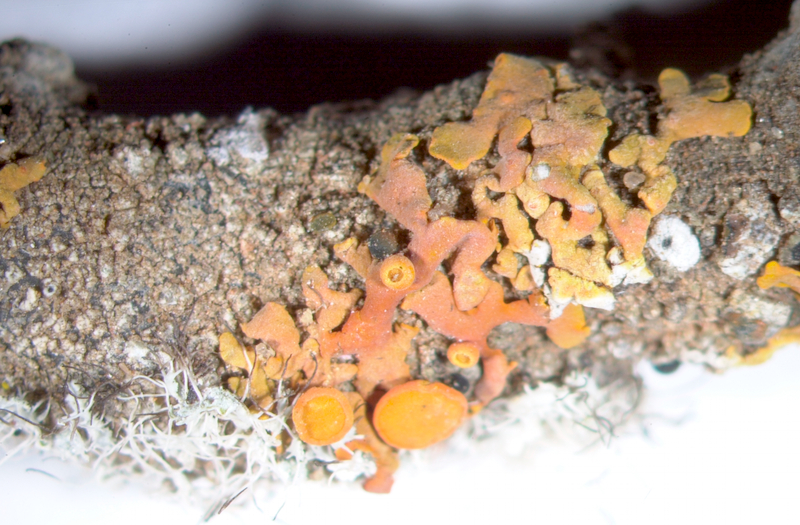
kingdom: Fungi
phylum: Ascomycota
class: Lecanoromycetes
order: Teloschistales
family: Teloschistaceae
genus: Xanthoria
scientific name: Xanthoria
